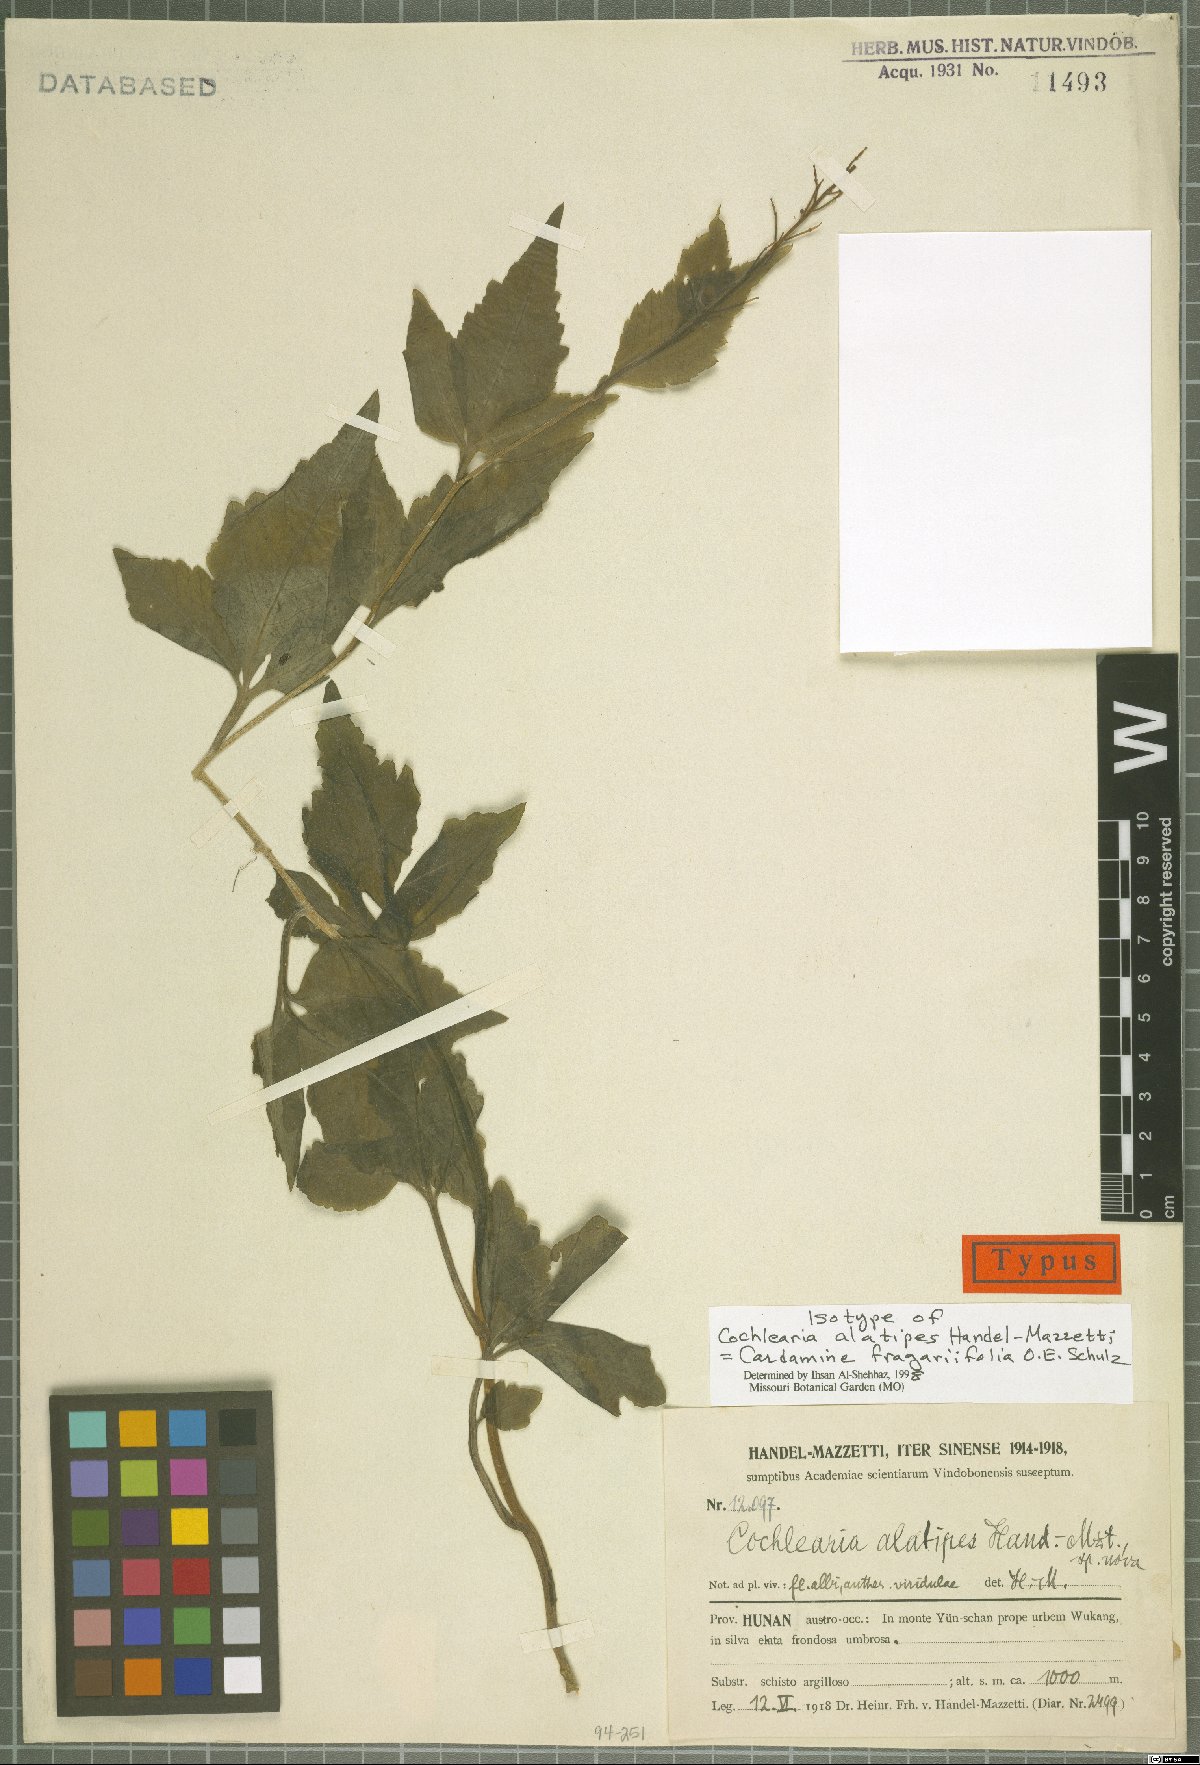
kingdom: Plantae
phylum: Tracheophyta
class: Magnoliopsida
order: Brassicales
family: Brassicaceae
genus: Cardamine
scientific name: Cardamine cheotaiyienii
